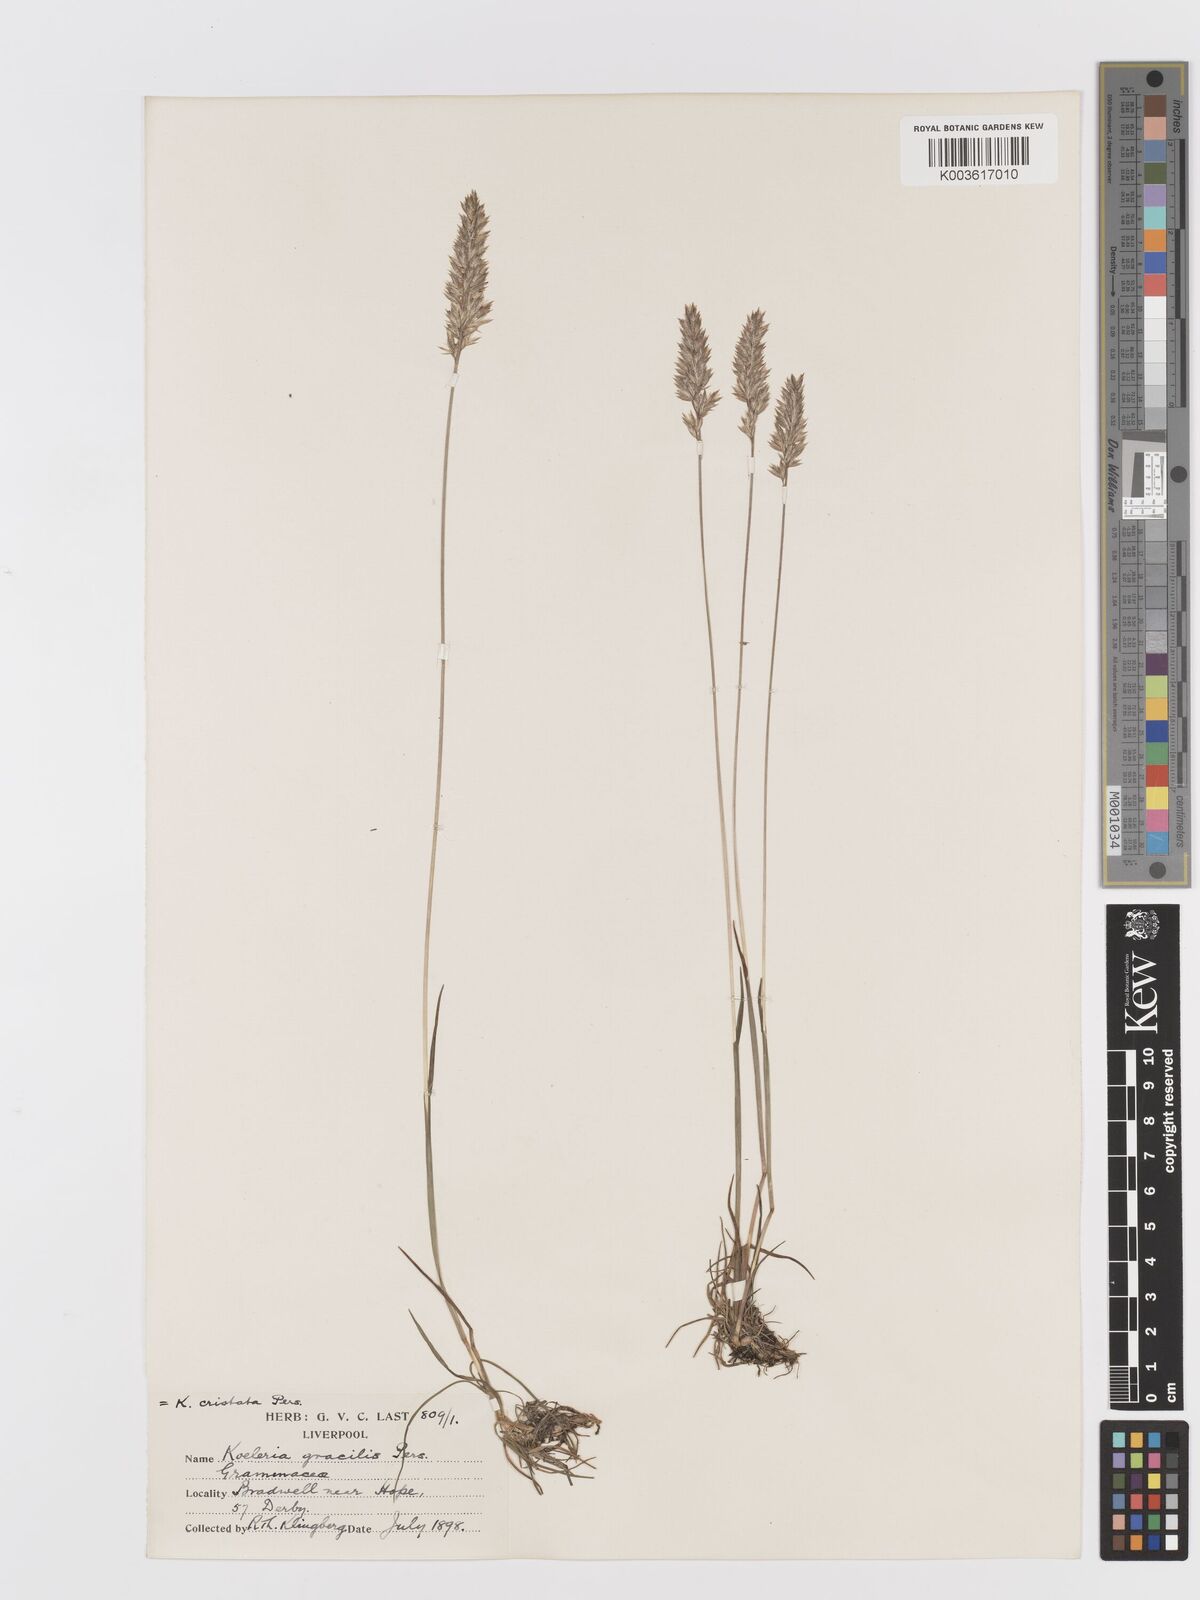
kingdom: Plantae
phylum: Tracheophyta
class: Liliopsida
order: Poales
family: Poaceae
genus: Koeleria
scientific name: Koeleria macrantha
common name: Crested hair-grass
